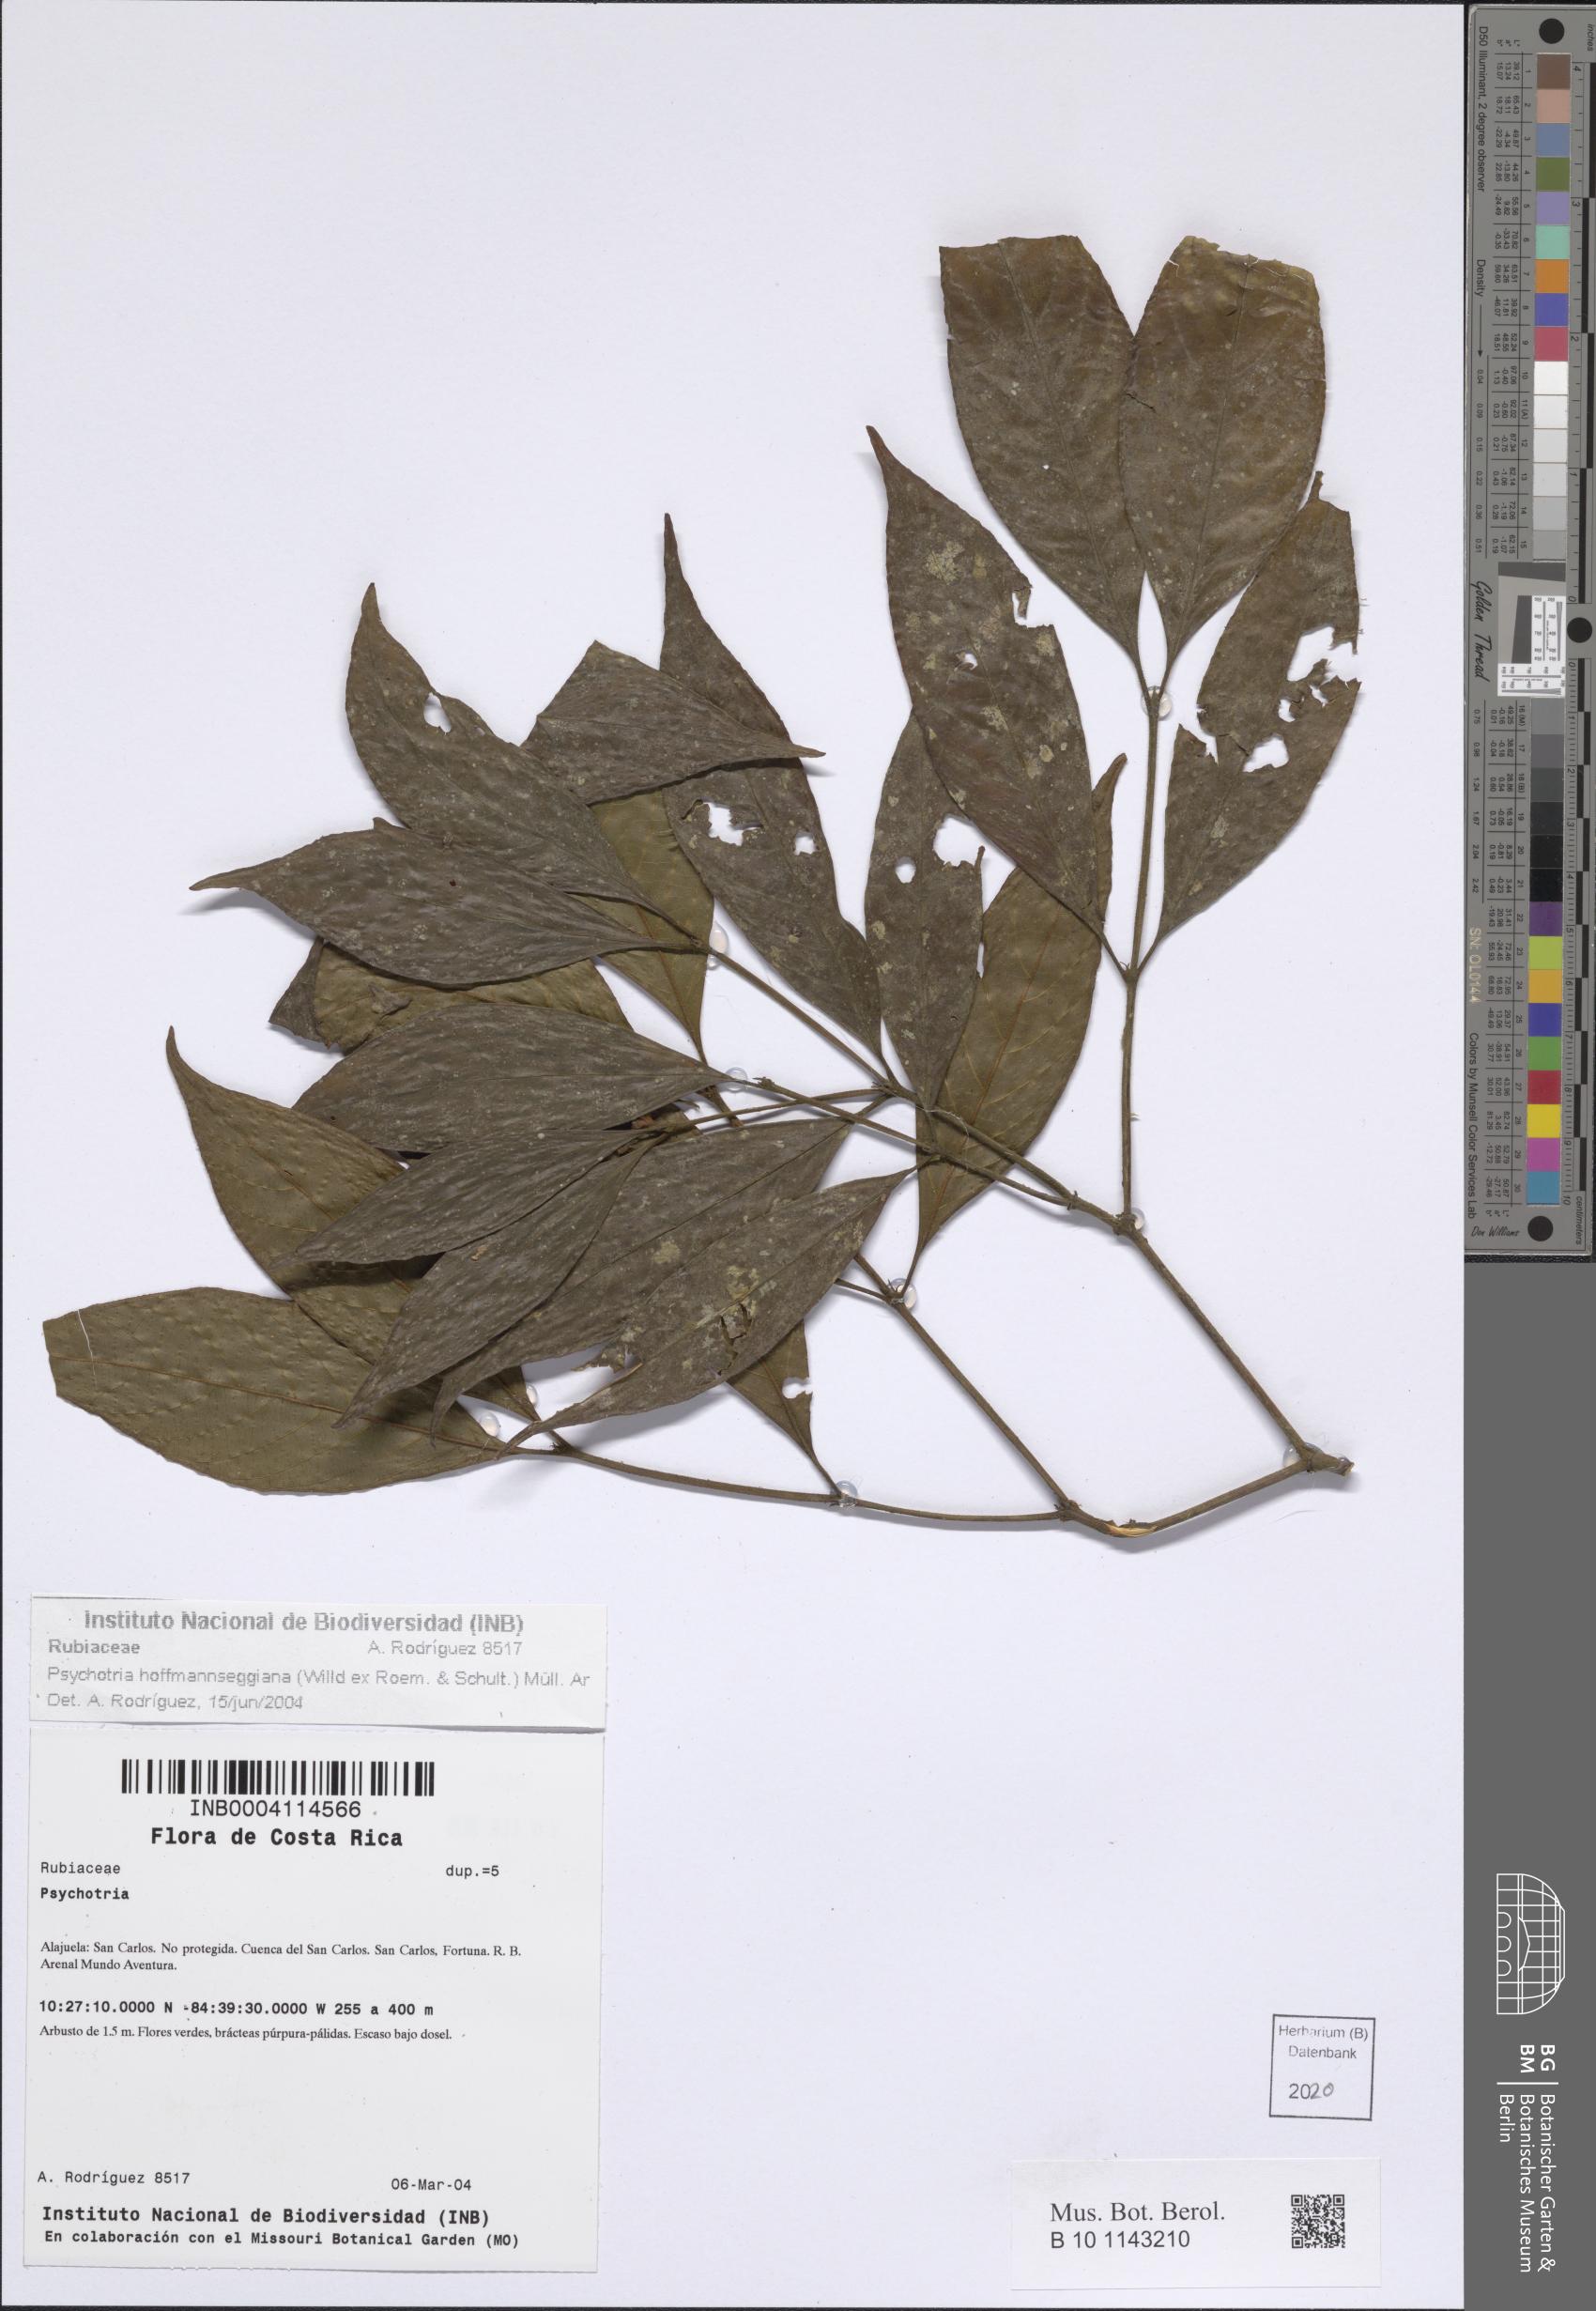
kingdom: Plantae
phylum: Tracheophyta
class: Magnoliopsida
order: Gentianales
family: Rubiaceae
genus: Palicourea
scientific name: Palicourea hoffmannseggiana
